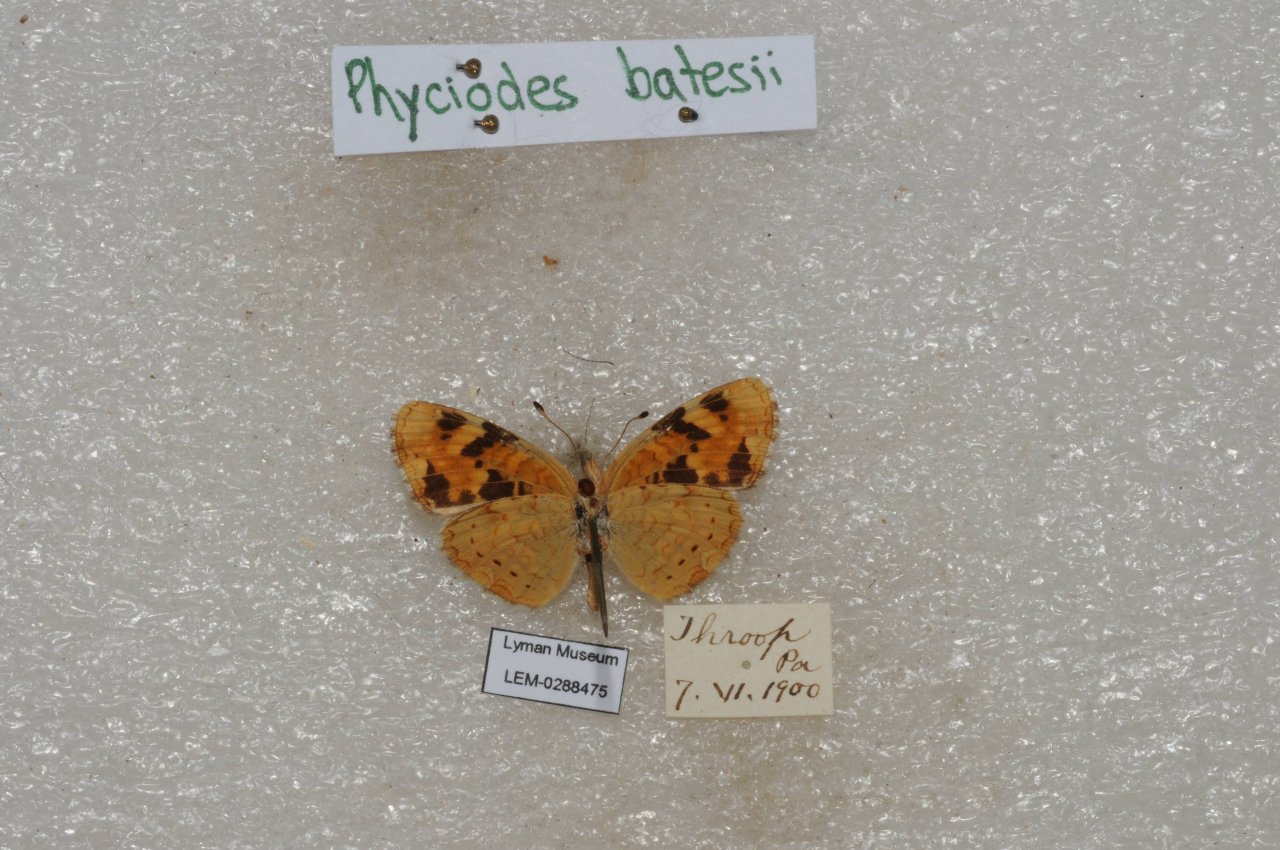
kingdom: Animalia
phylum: Arthropoda
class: Insecta
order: Lepidoptera
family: Nymphalidae
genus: Phyciodes
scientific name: Phyciodes batesii
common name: Tawny Crescent
